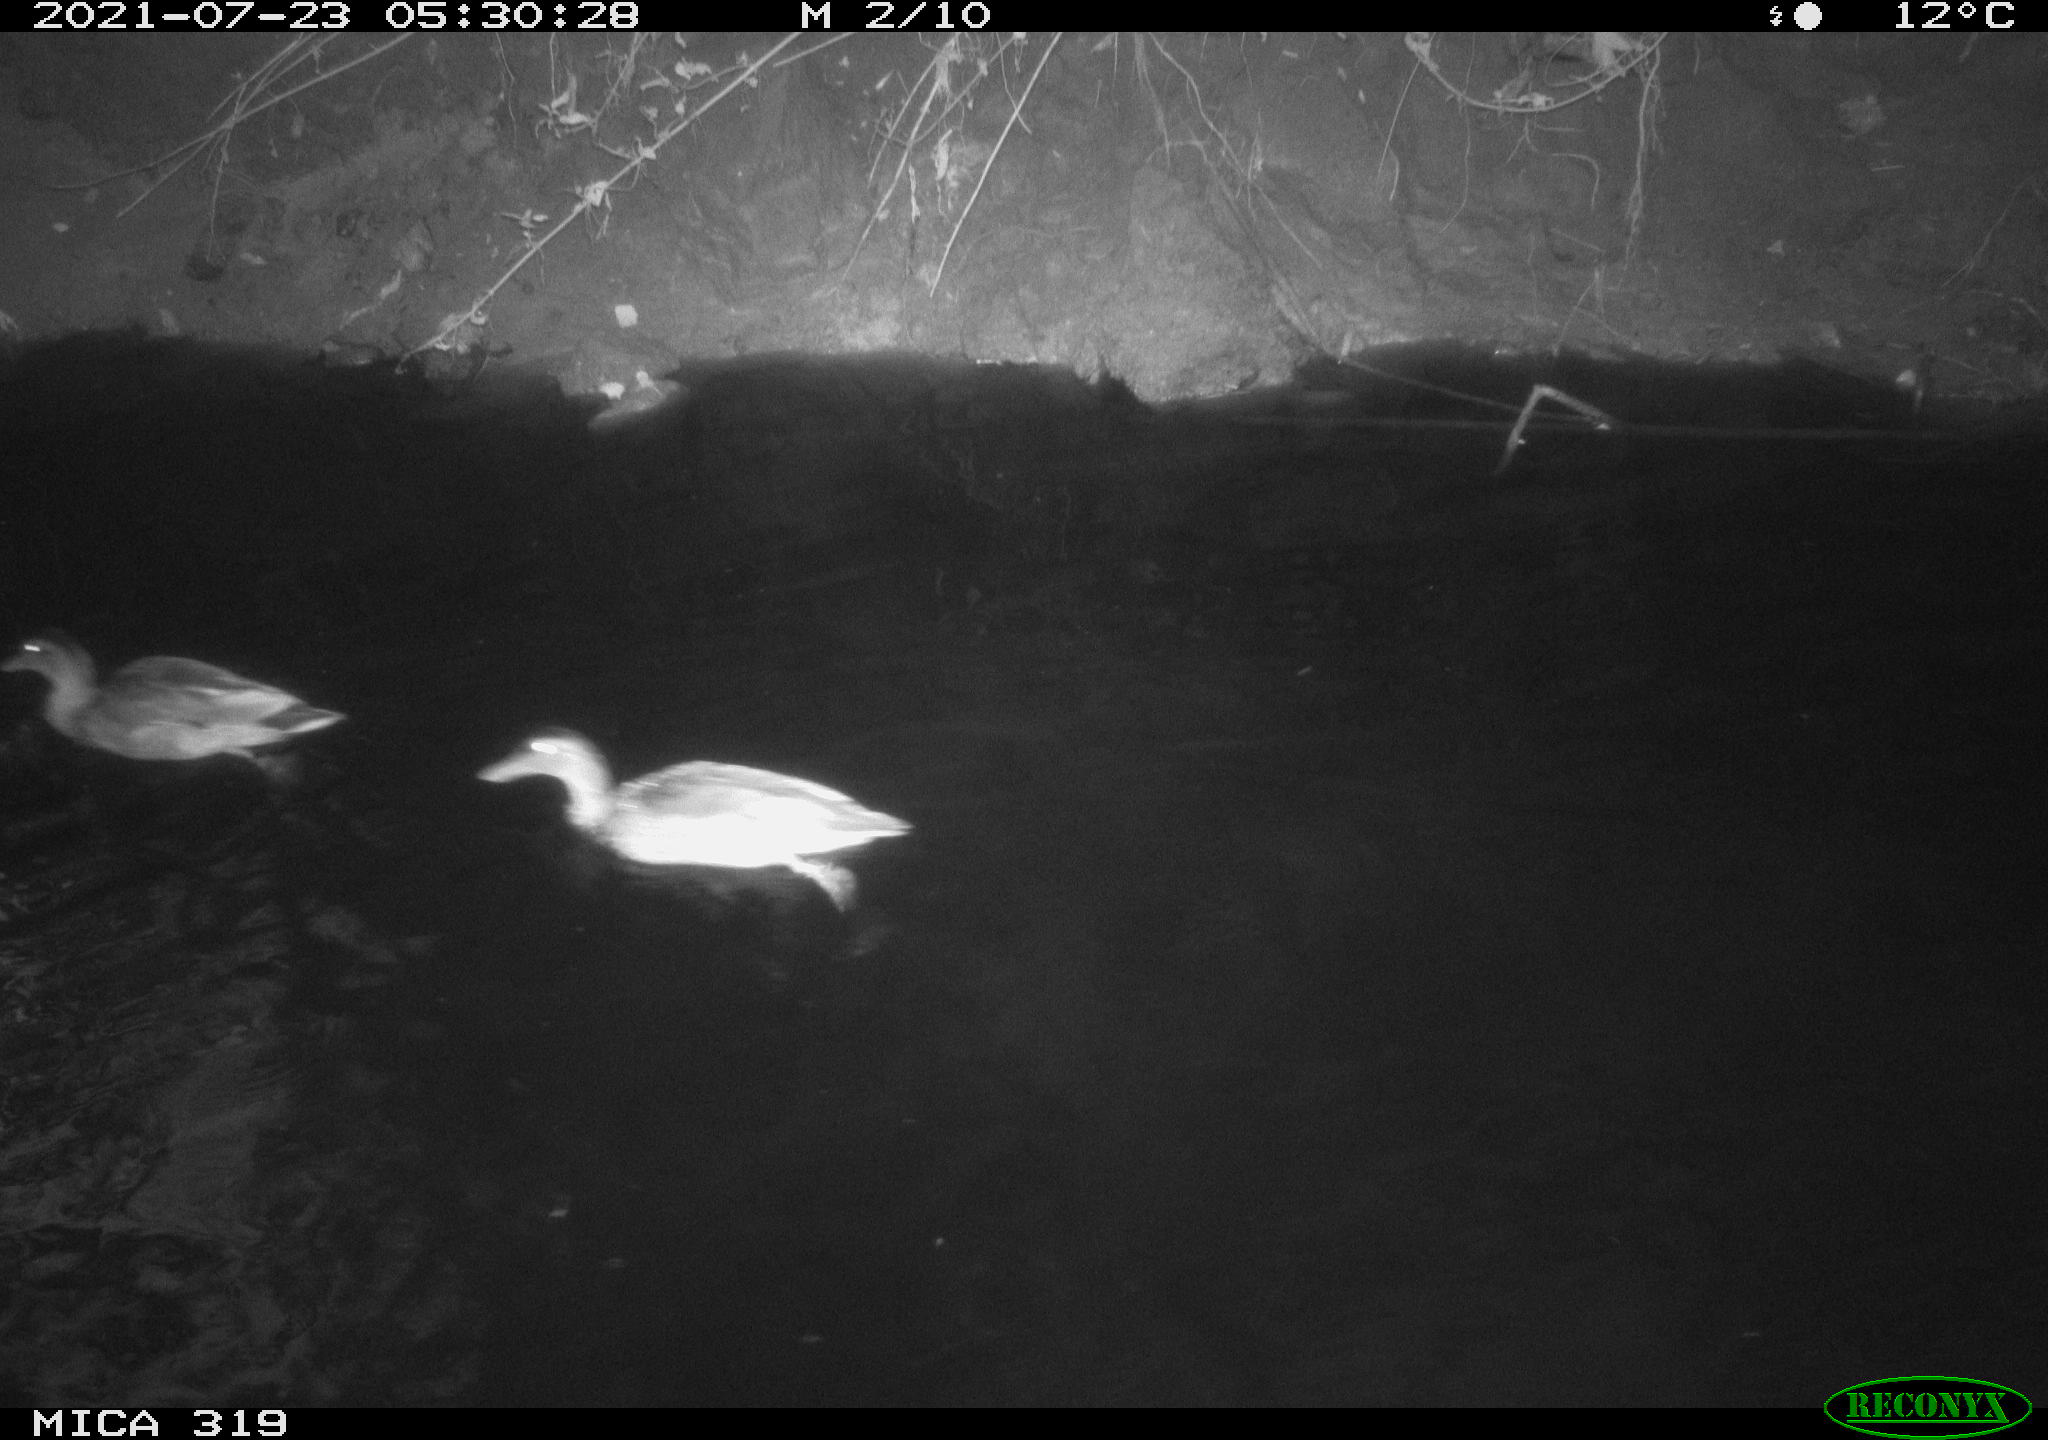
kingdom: Animalia
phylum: Chordata
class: Aves
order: Anseriformes
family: Anatidae
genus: Anas
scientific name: Anas platyrhynchos
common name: Mallard
